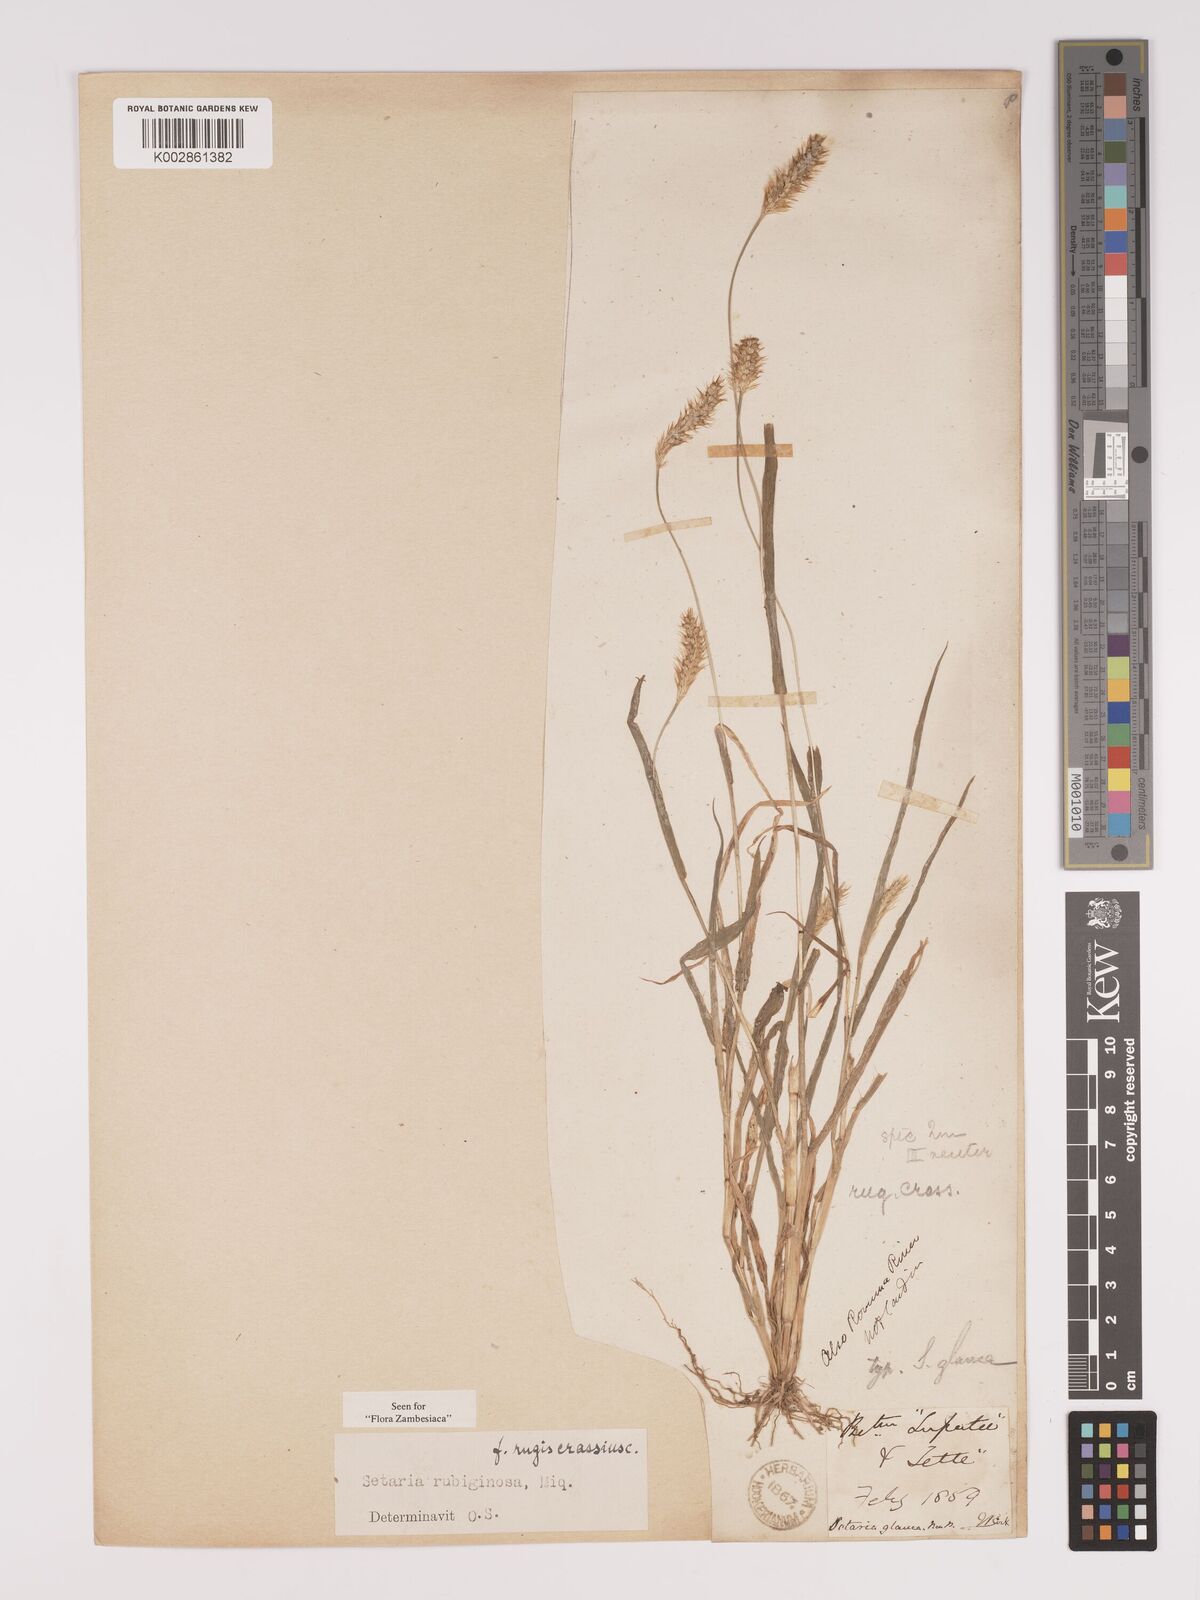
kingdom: Plantae
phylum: Tracheophyta
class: Liliopsida
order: Poales
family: Poaceae
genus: Setaria
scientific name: Setaria pumila
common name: Yellow bristle-grass
